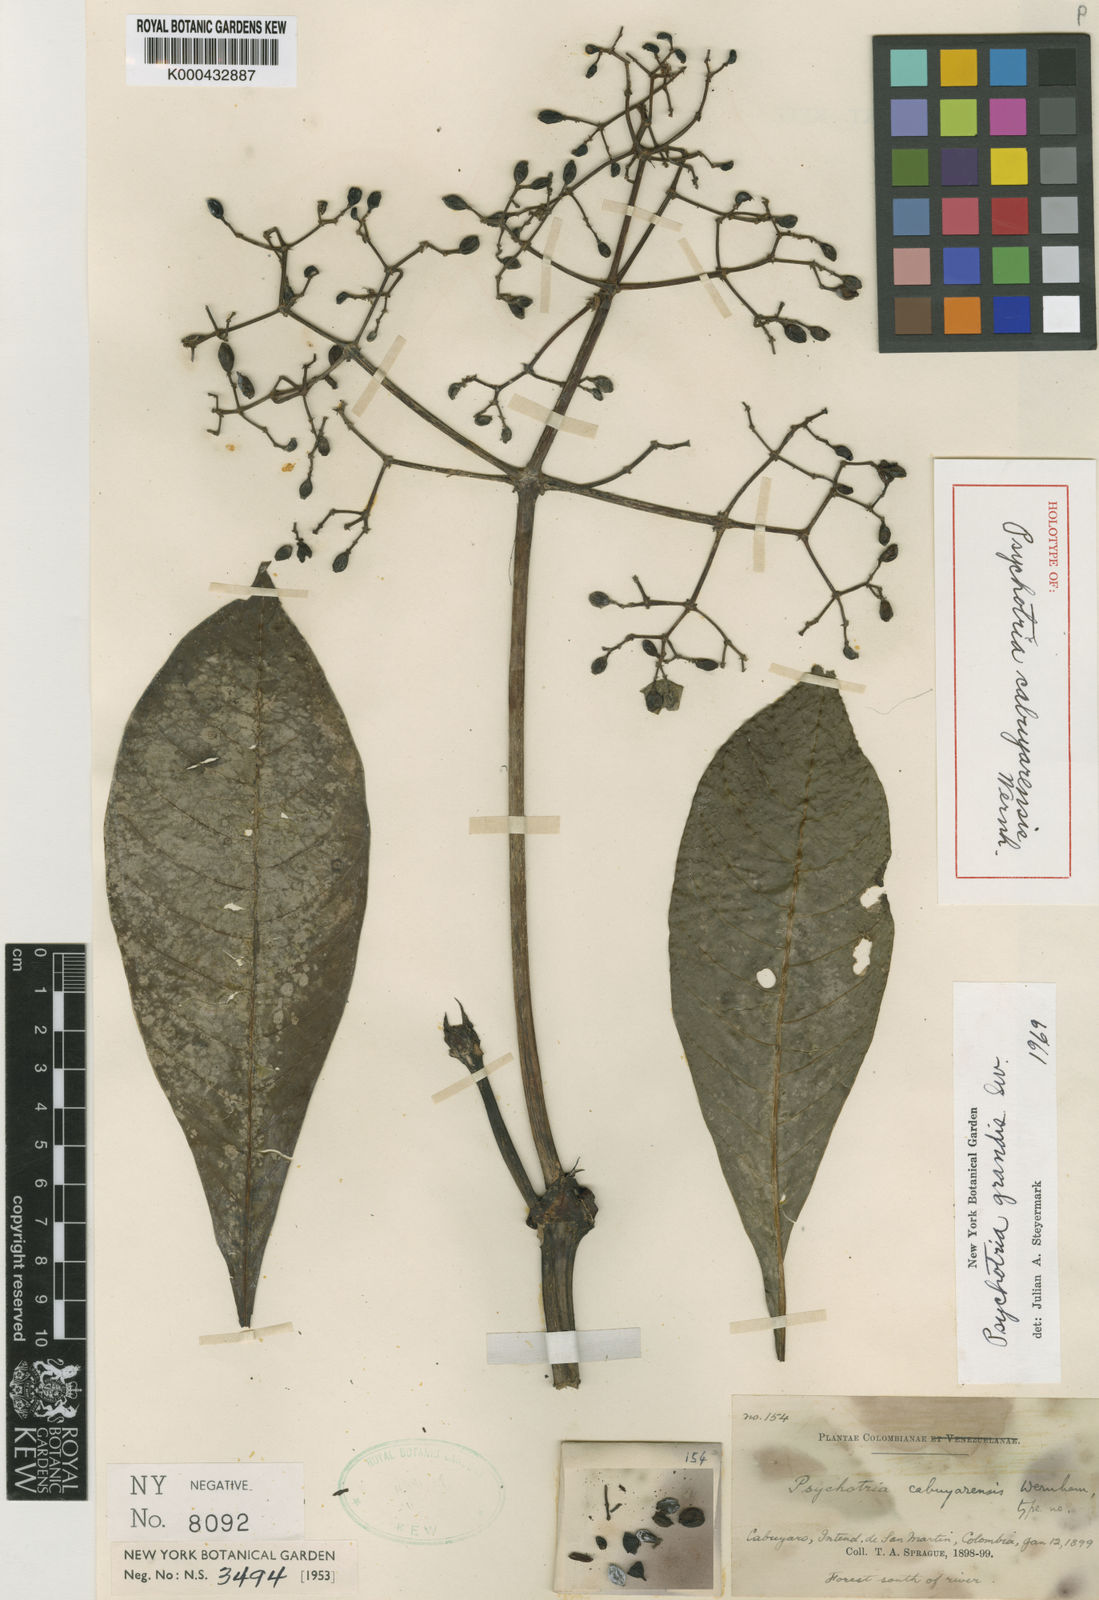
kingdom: Plantae
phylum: Tracheophyta
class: Magnoliopsida
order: Gentianales
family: Rubiaceae
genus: Psychotria
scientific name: Psychotria grandis
